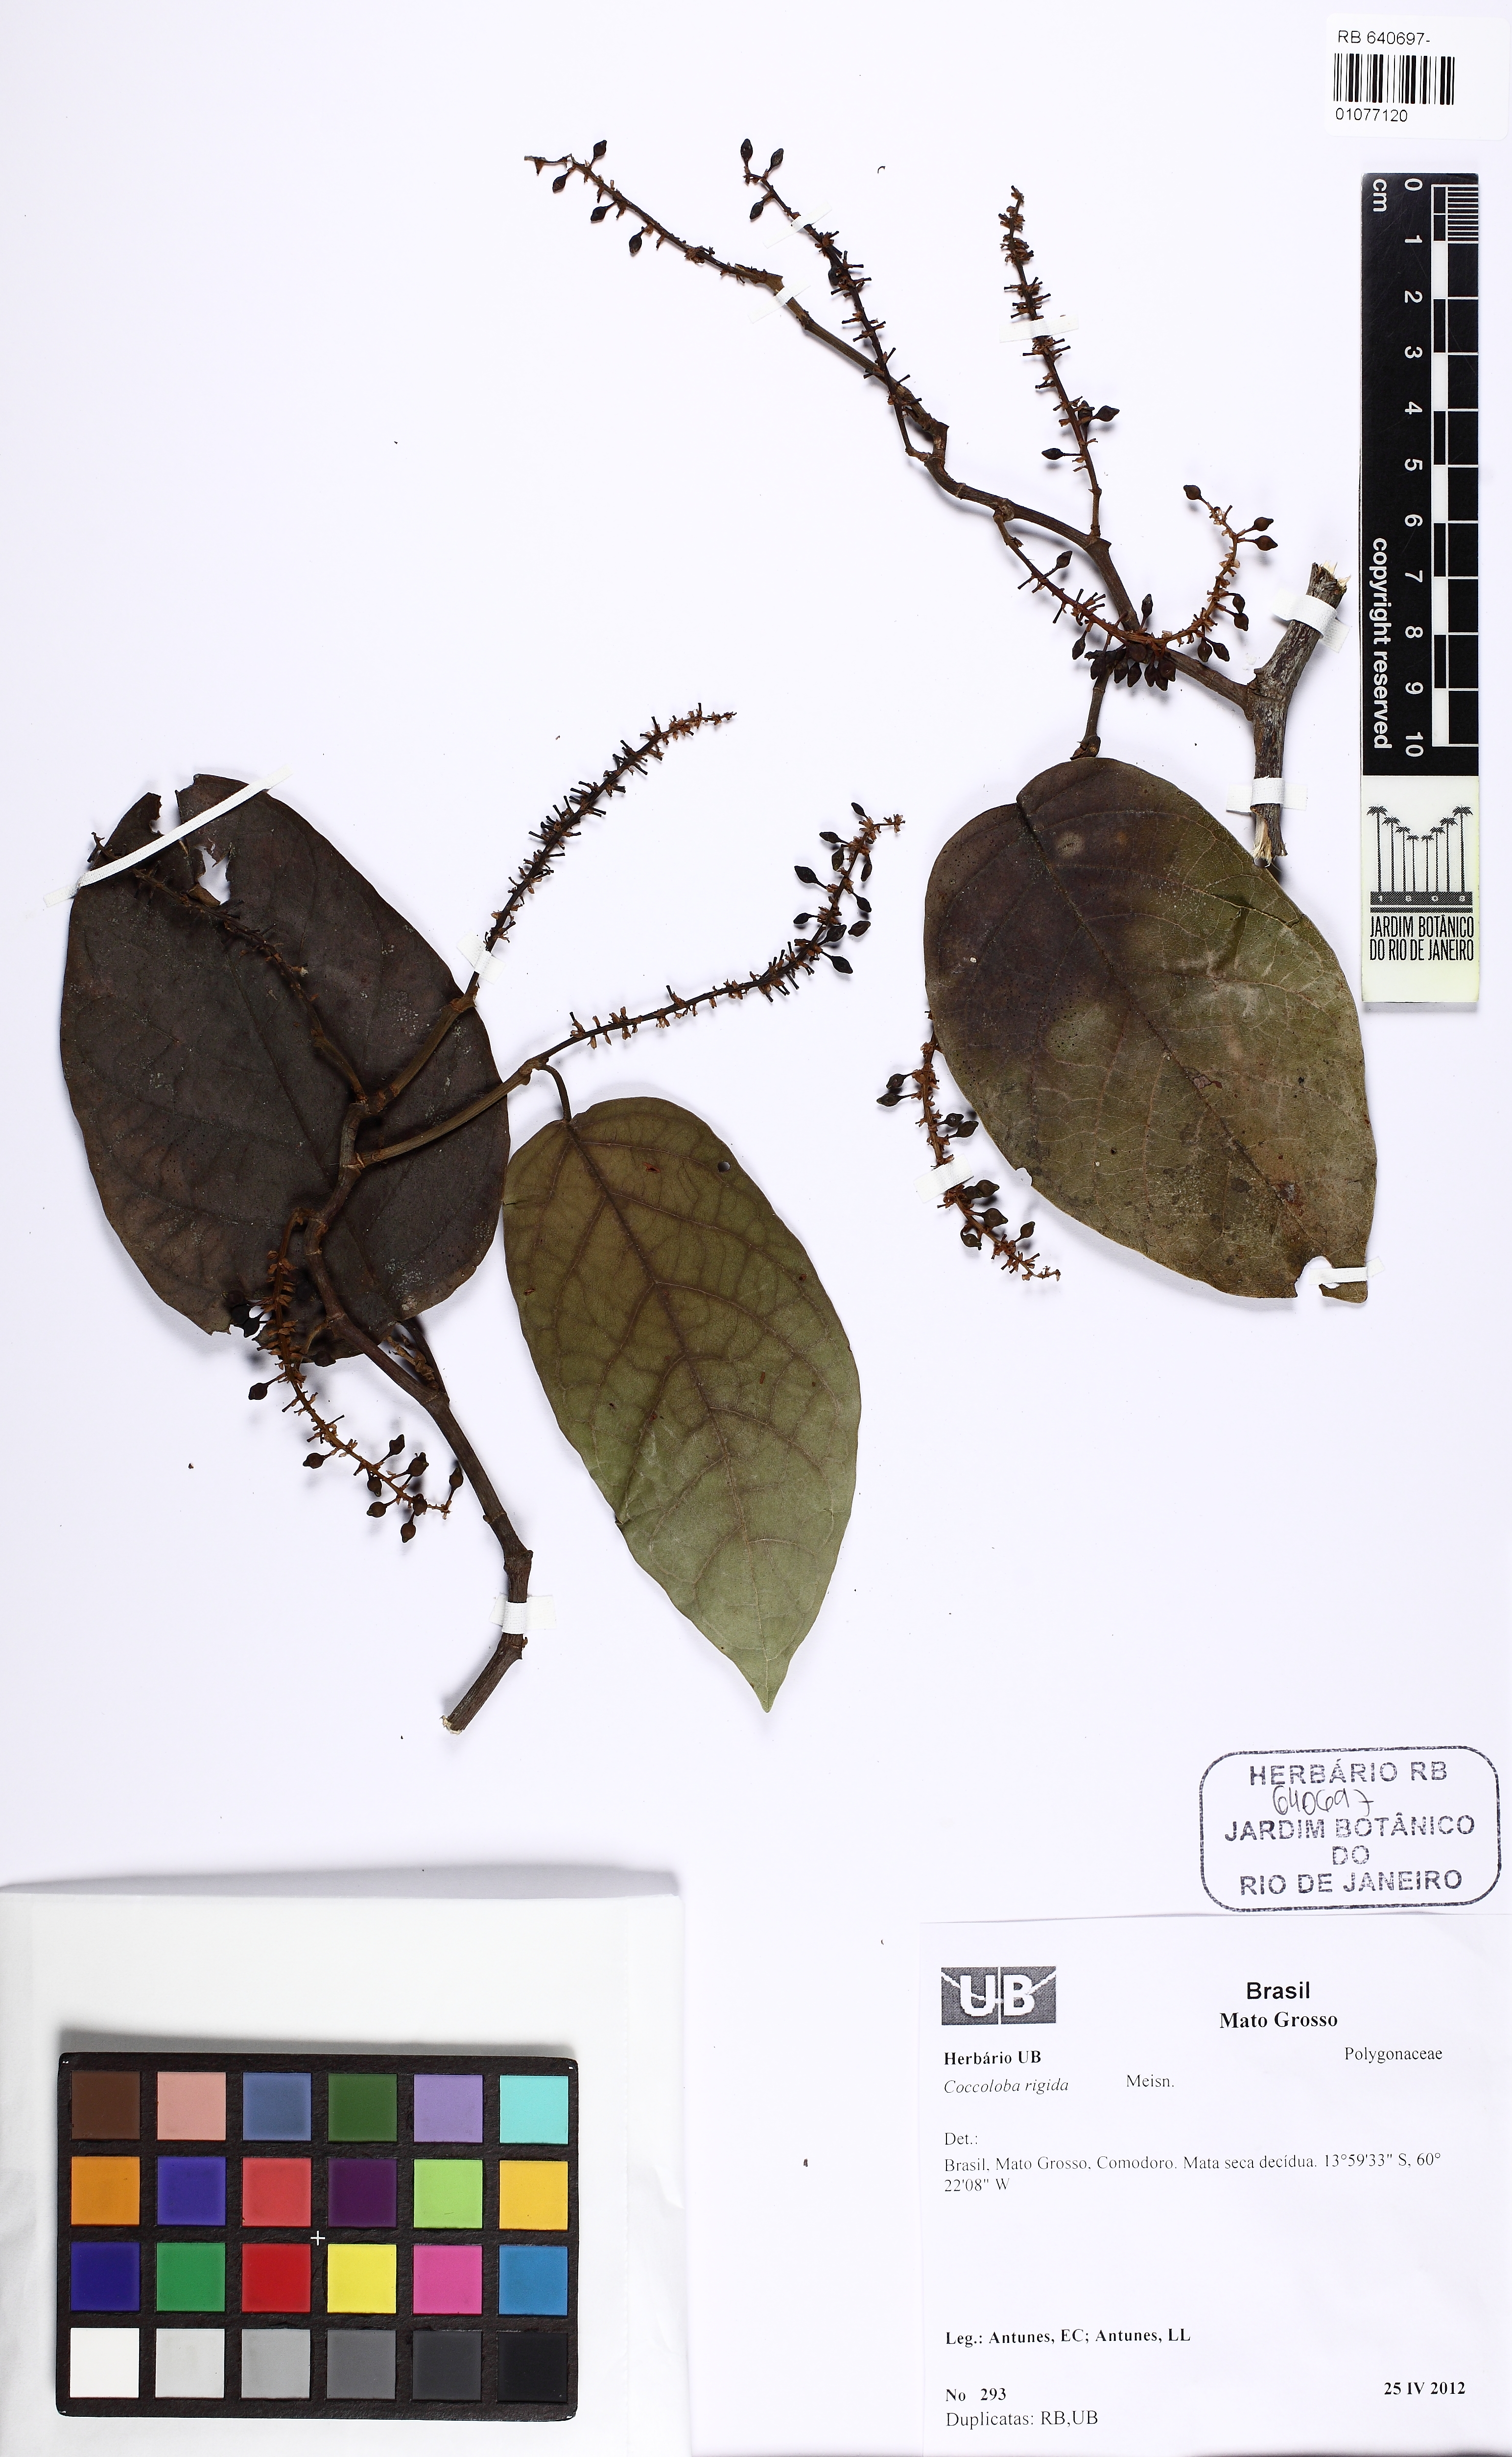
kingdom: Plantae
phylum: Tracheophyta
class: Magnoliopsida
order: Caryophyllales
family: Polygonaceae
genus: Coccoloba
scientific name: Coccoloba rigida
